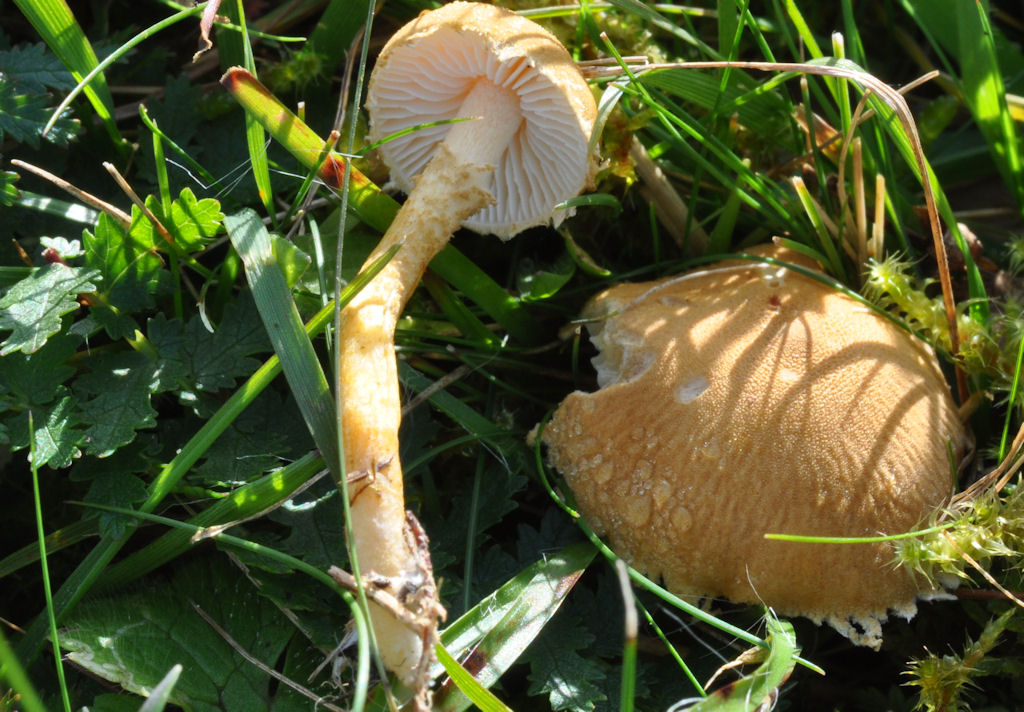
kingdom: Fungi
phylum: Basidiomycota
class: Agaricomycetes
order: Agaricales
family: Tricholomataceae
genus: Cystoderma
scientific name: Cystoderma amianthinum
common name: okkergul grynhat
